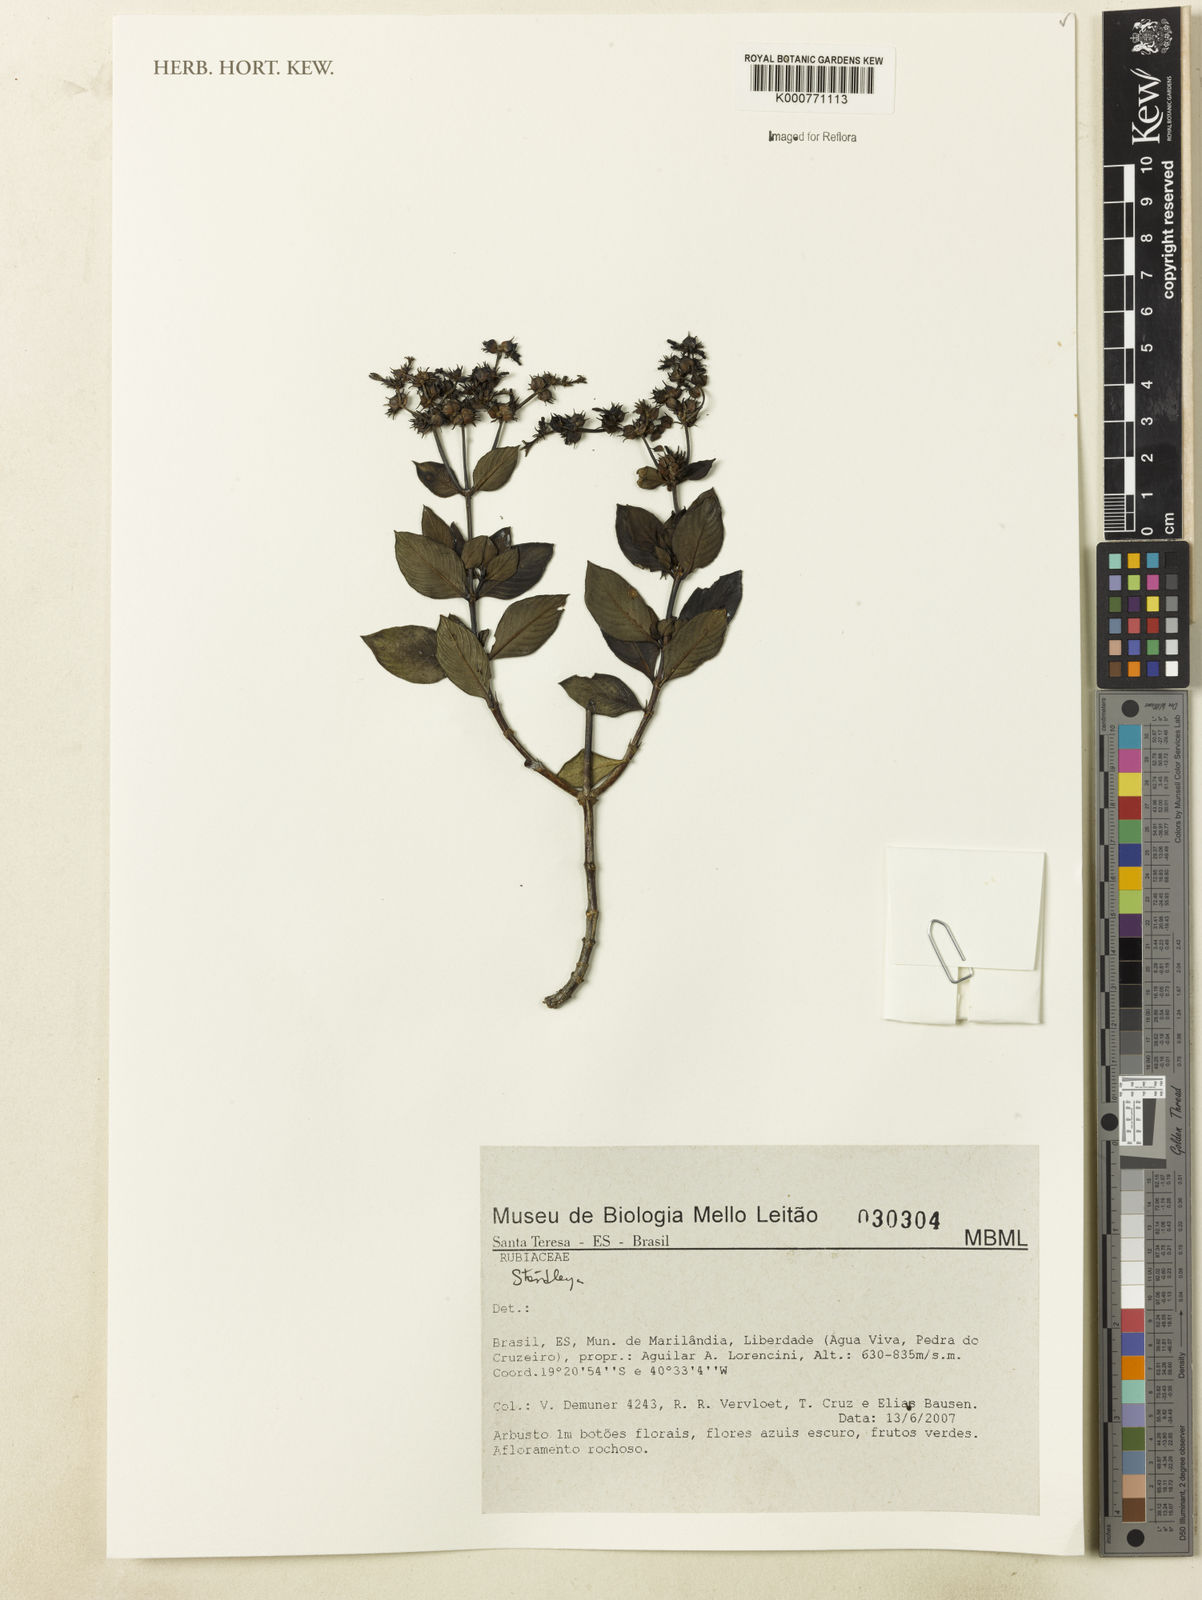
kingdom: Plantae
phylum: Tracheophyta
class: Magnoliopsida
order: Gentianales
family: Rubiaceae
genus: Standleya
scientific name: Standleya
